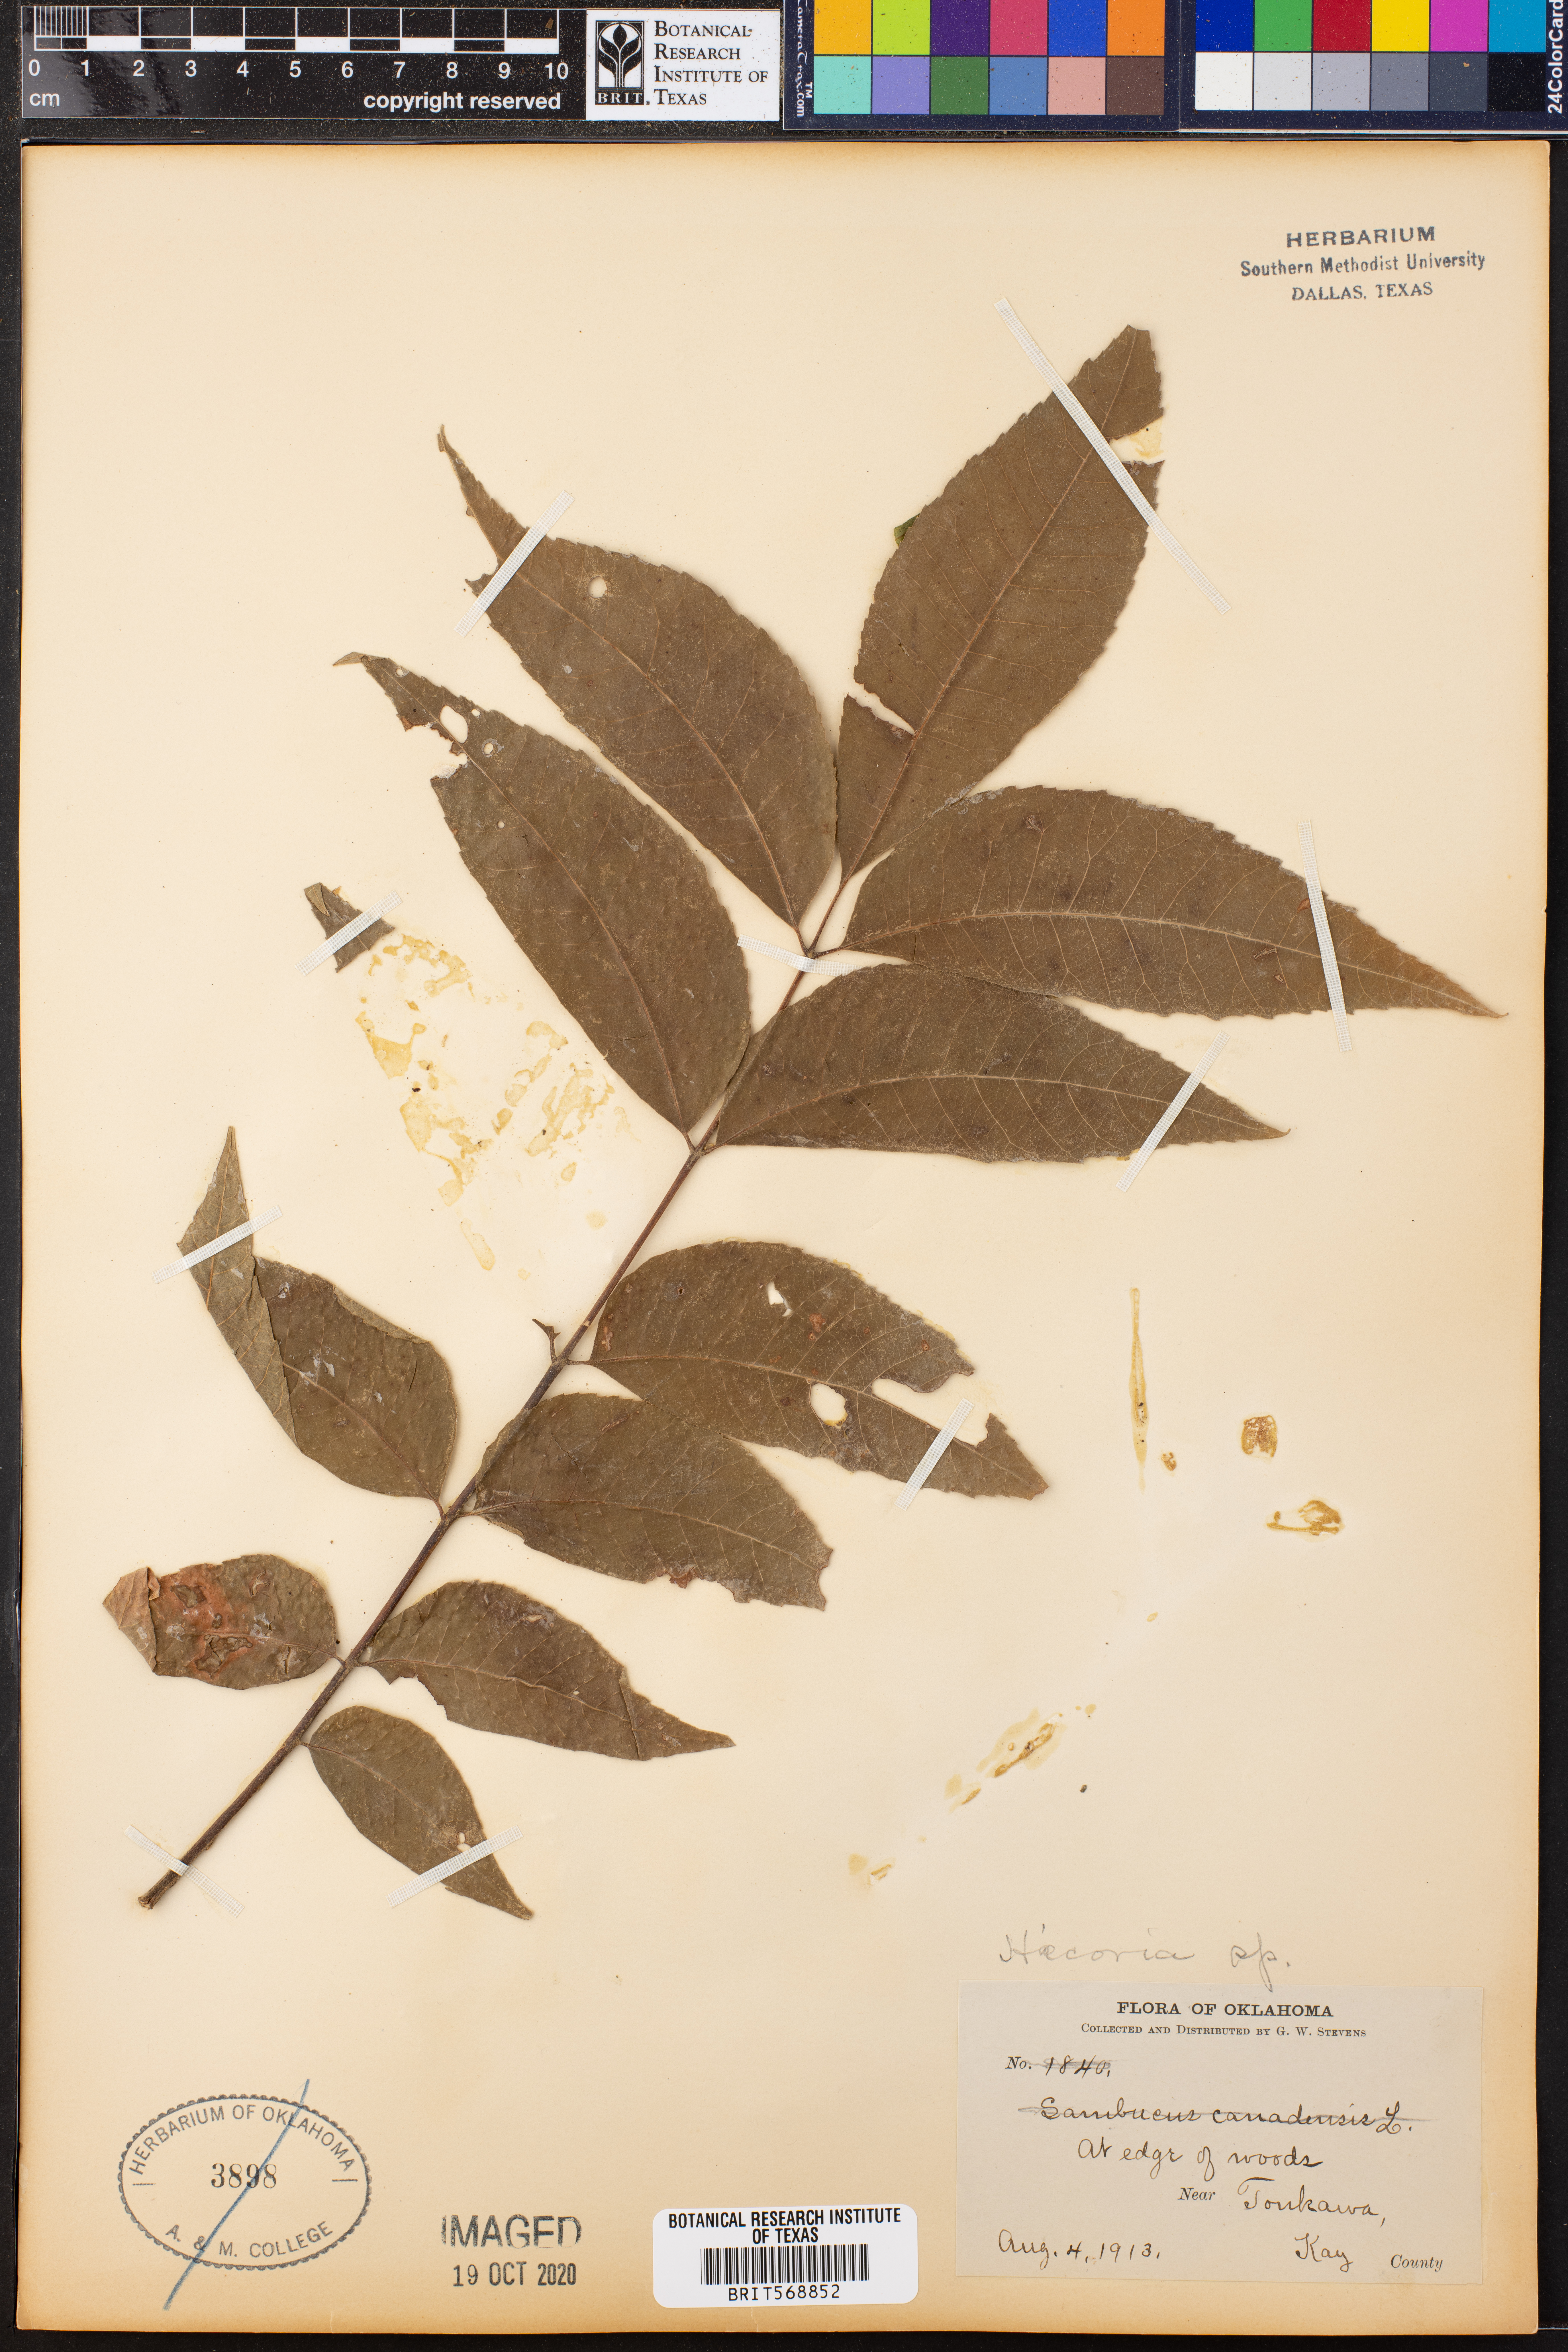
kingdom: Plantae
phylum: Tracheophyta
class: Magnoliopsida
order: Fagales
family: Juglandaceae
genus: Hicoria
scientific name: Hicoria
